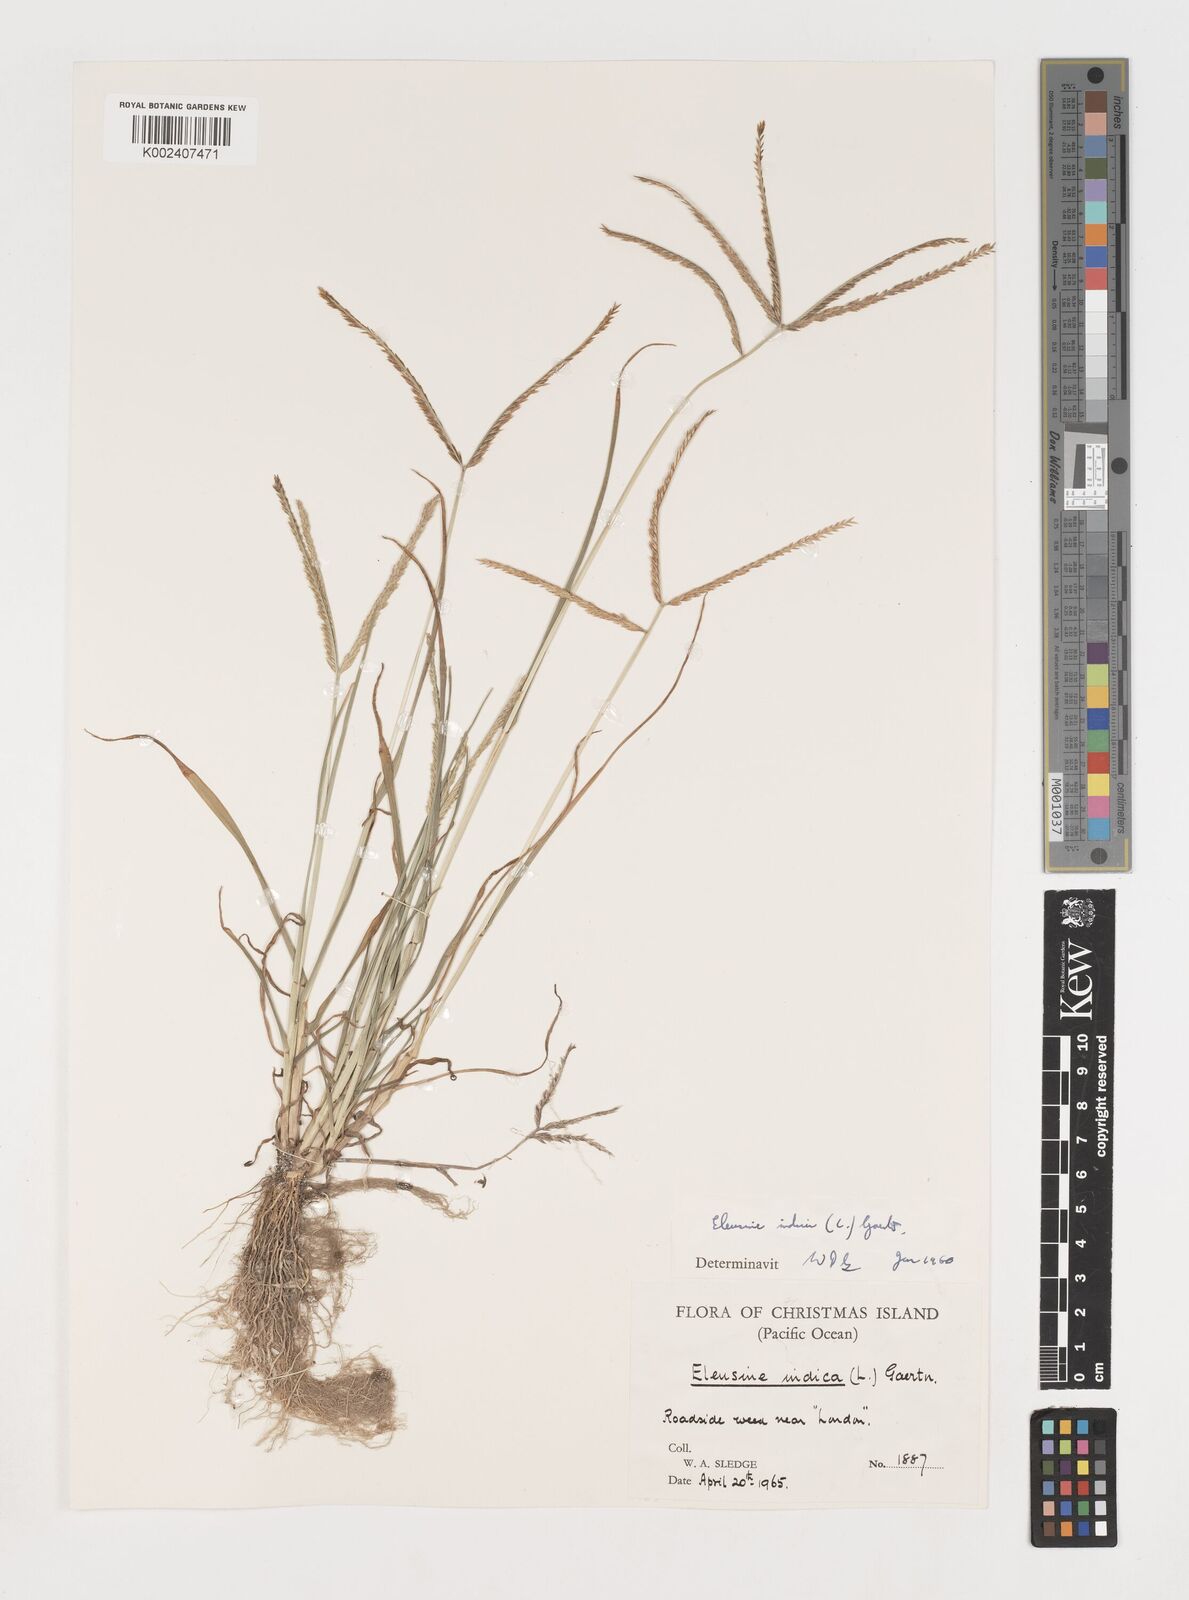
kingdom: Plantae
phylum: Tracheophyta
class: Liliopsida
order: Poales
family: Poaceae
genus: Eleusine
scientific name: Eleusine indica
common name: Yard-grass
